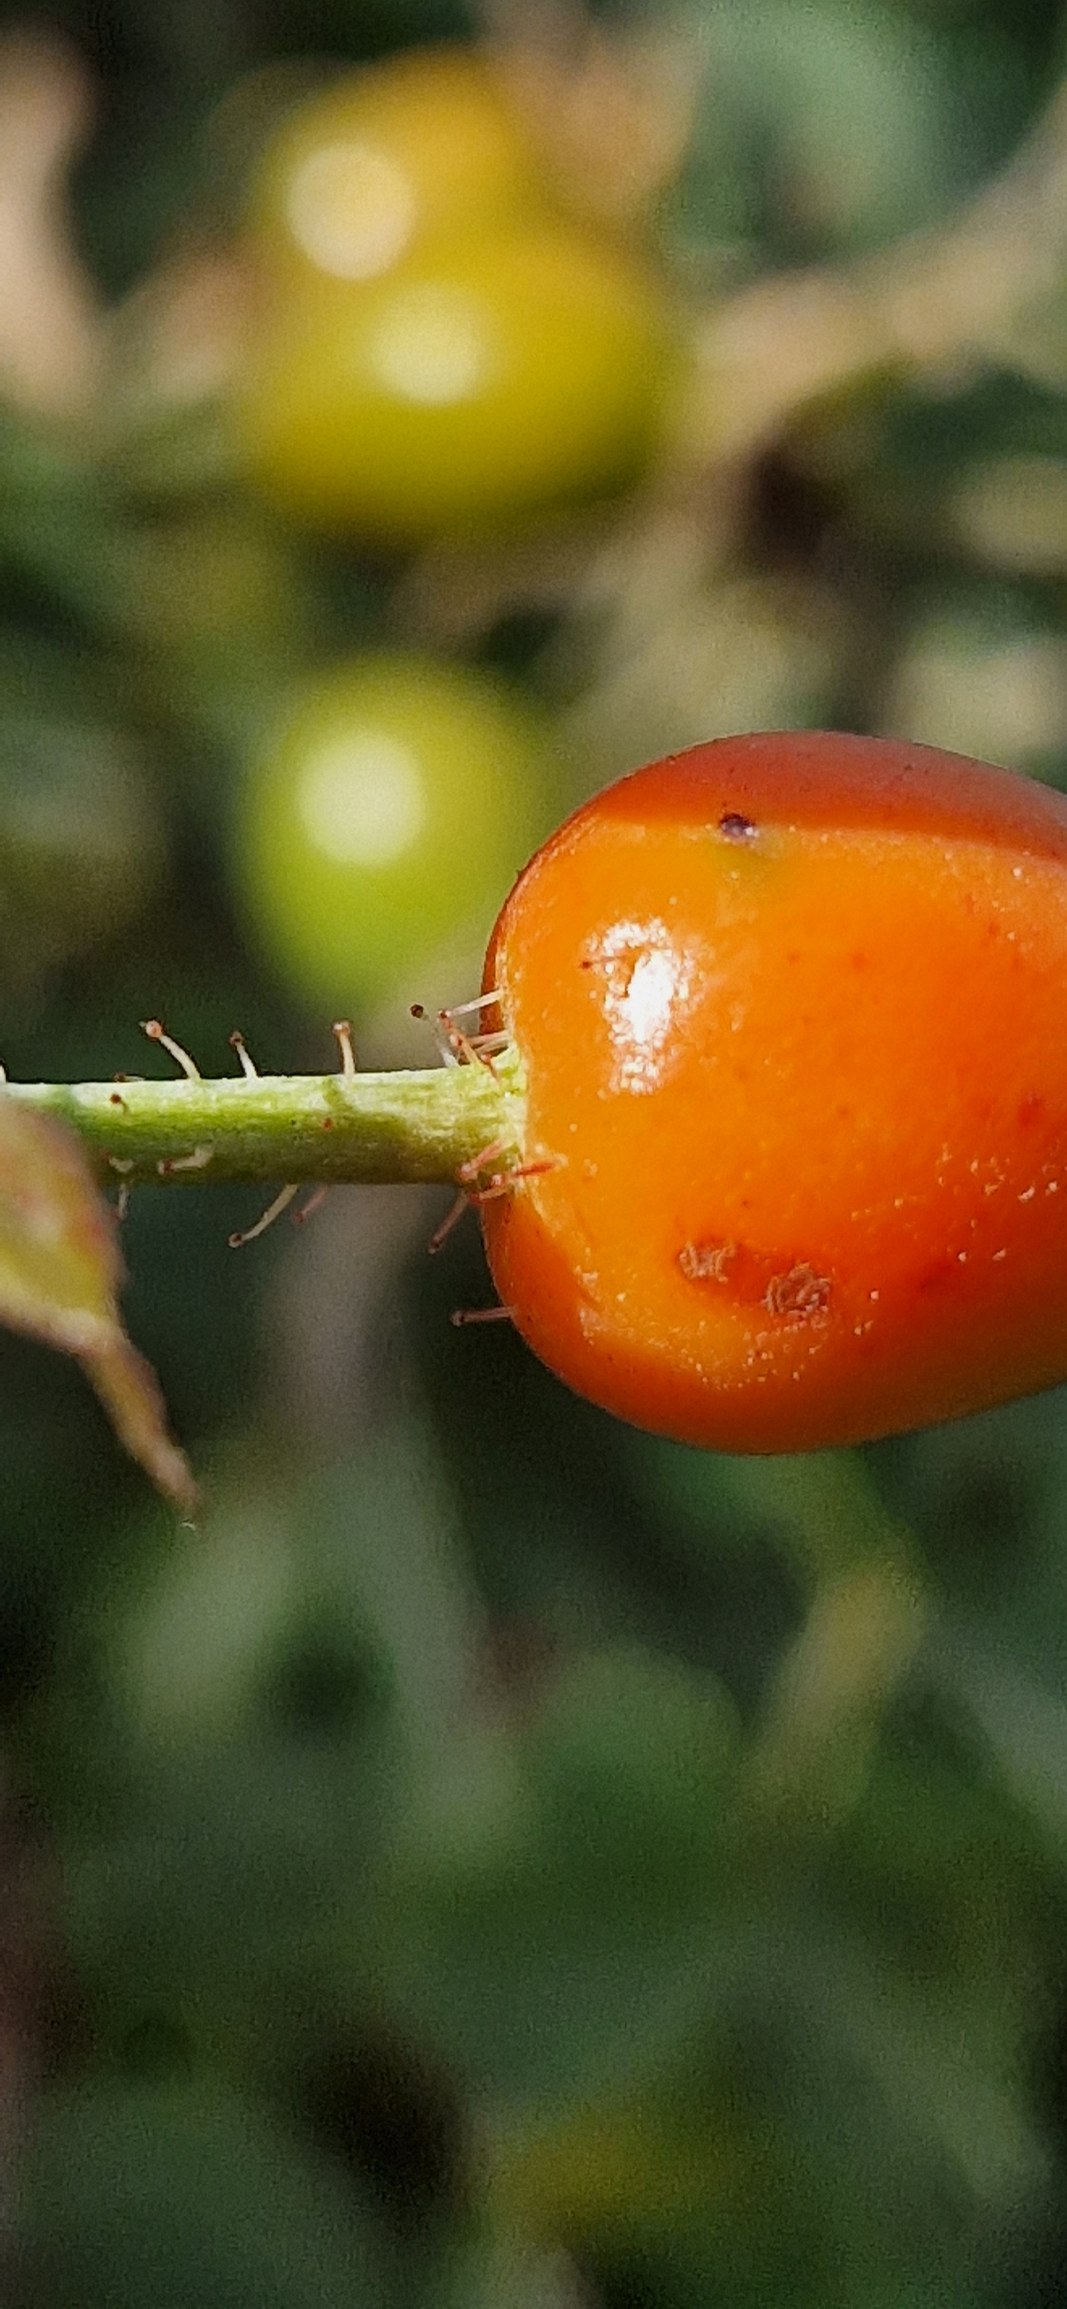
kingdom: Plantae
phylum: Tracheophyta
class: Magnoliopsida
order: Rosales
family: Rosaceae
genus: Rosa
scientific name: Rosa sherardii
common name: Kortstilket filt-rose
